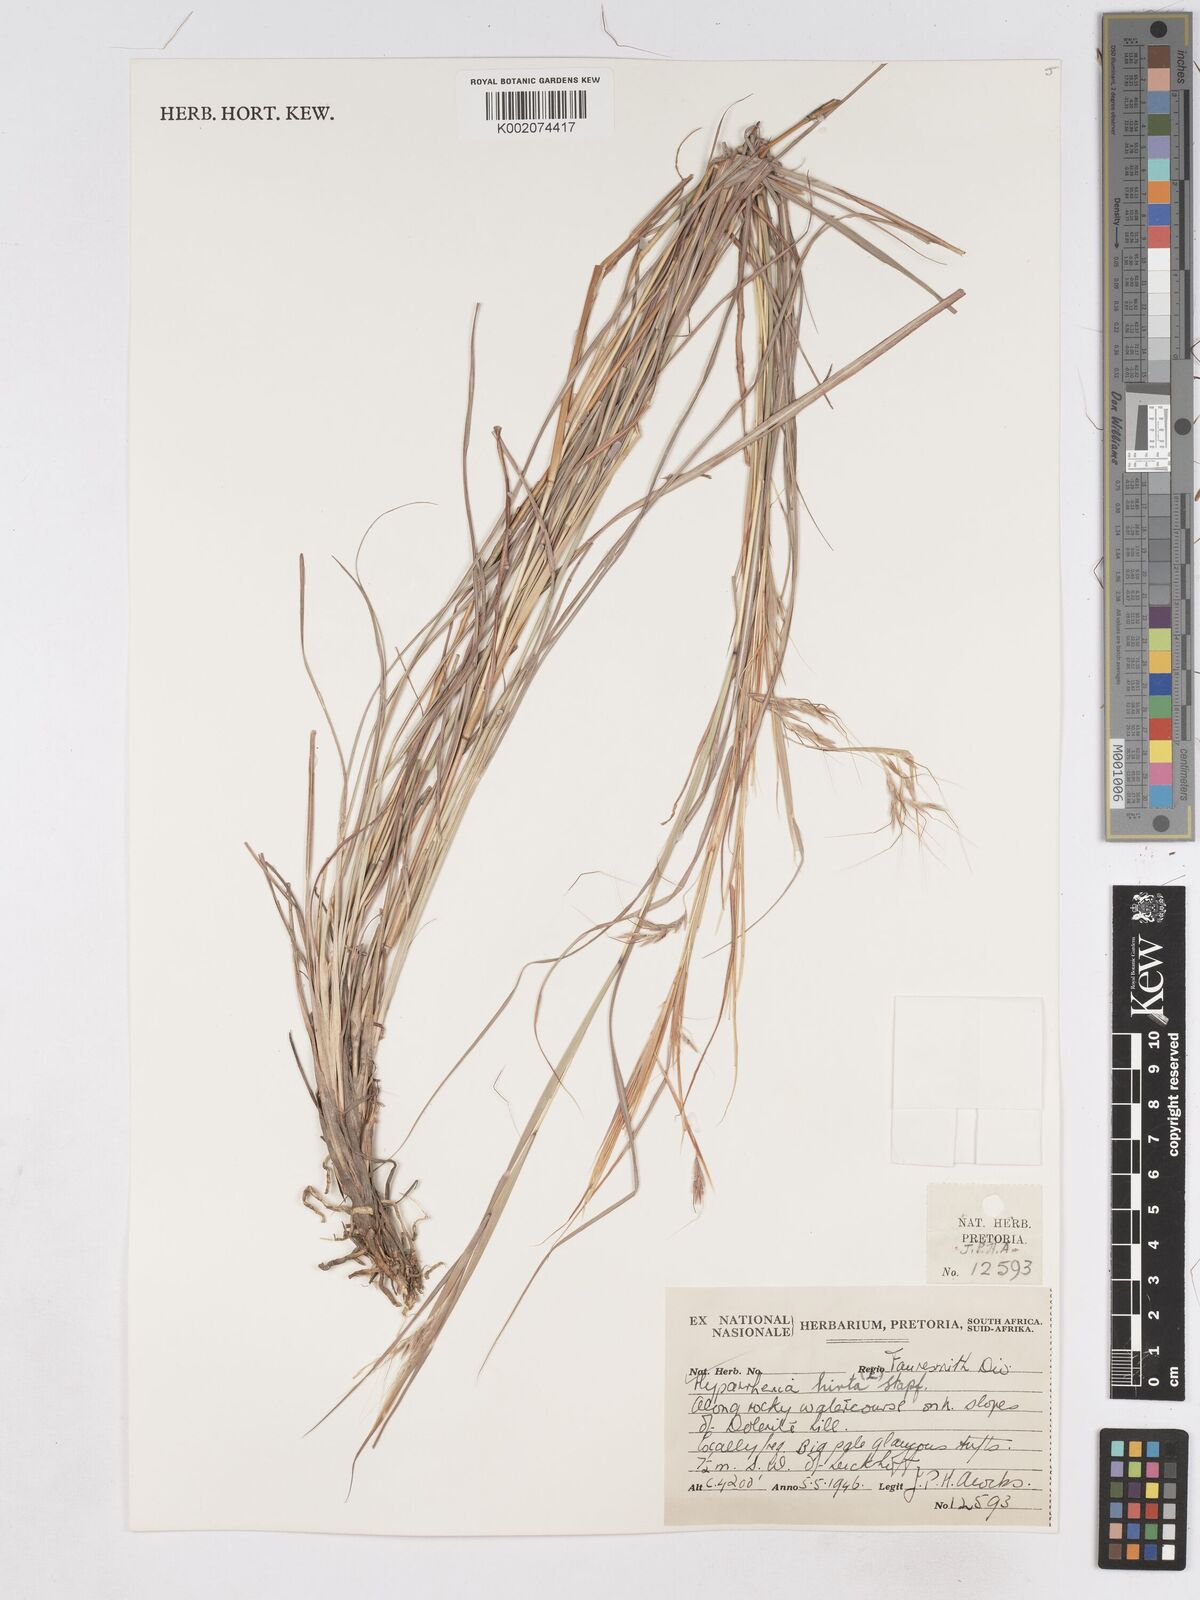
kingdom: Plantae
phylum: Tracheophyta
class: Liliopsida
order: Poales
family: Poaceae
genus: Hyparrhenia
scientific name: Hyparrhenia hirta
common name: Thatching grass
